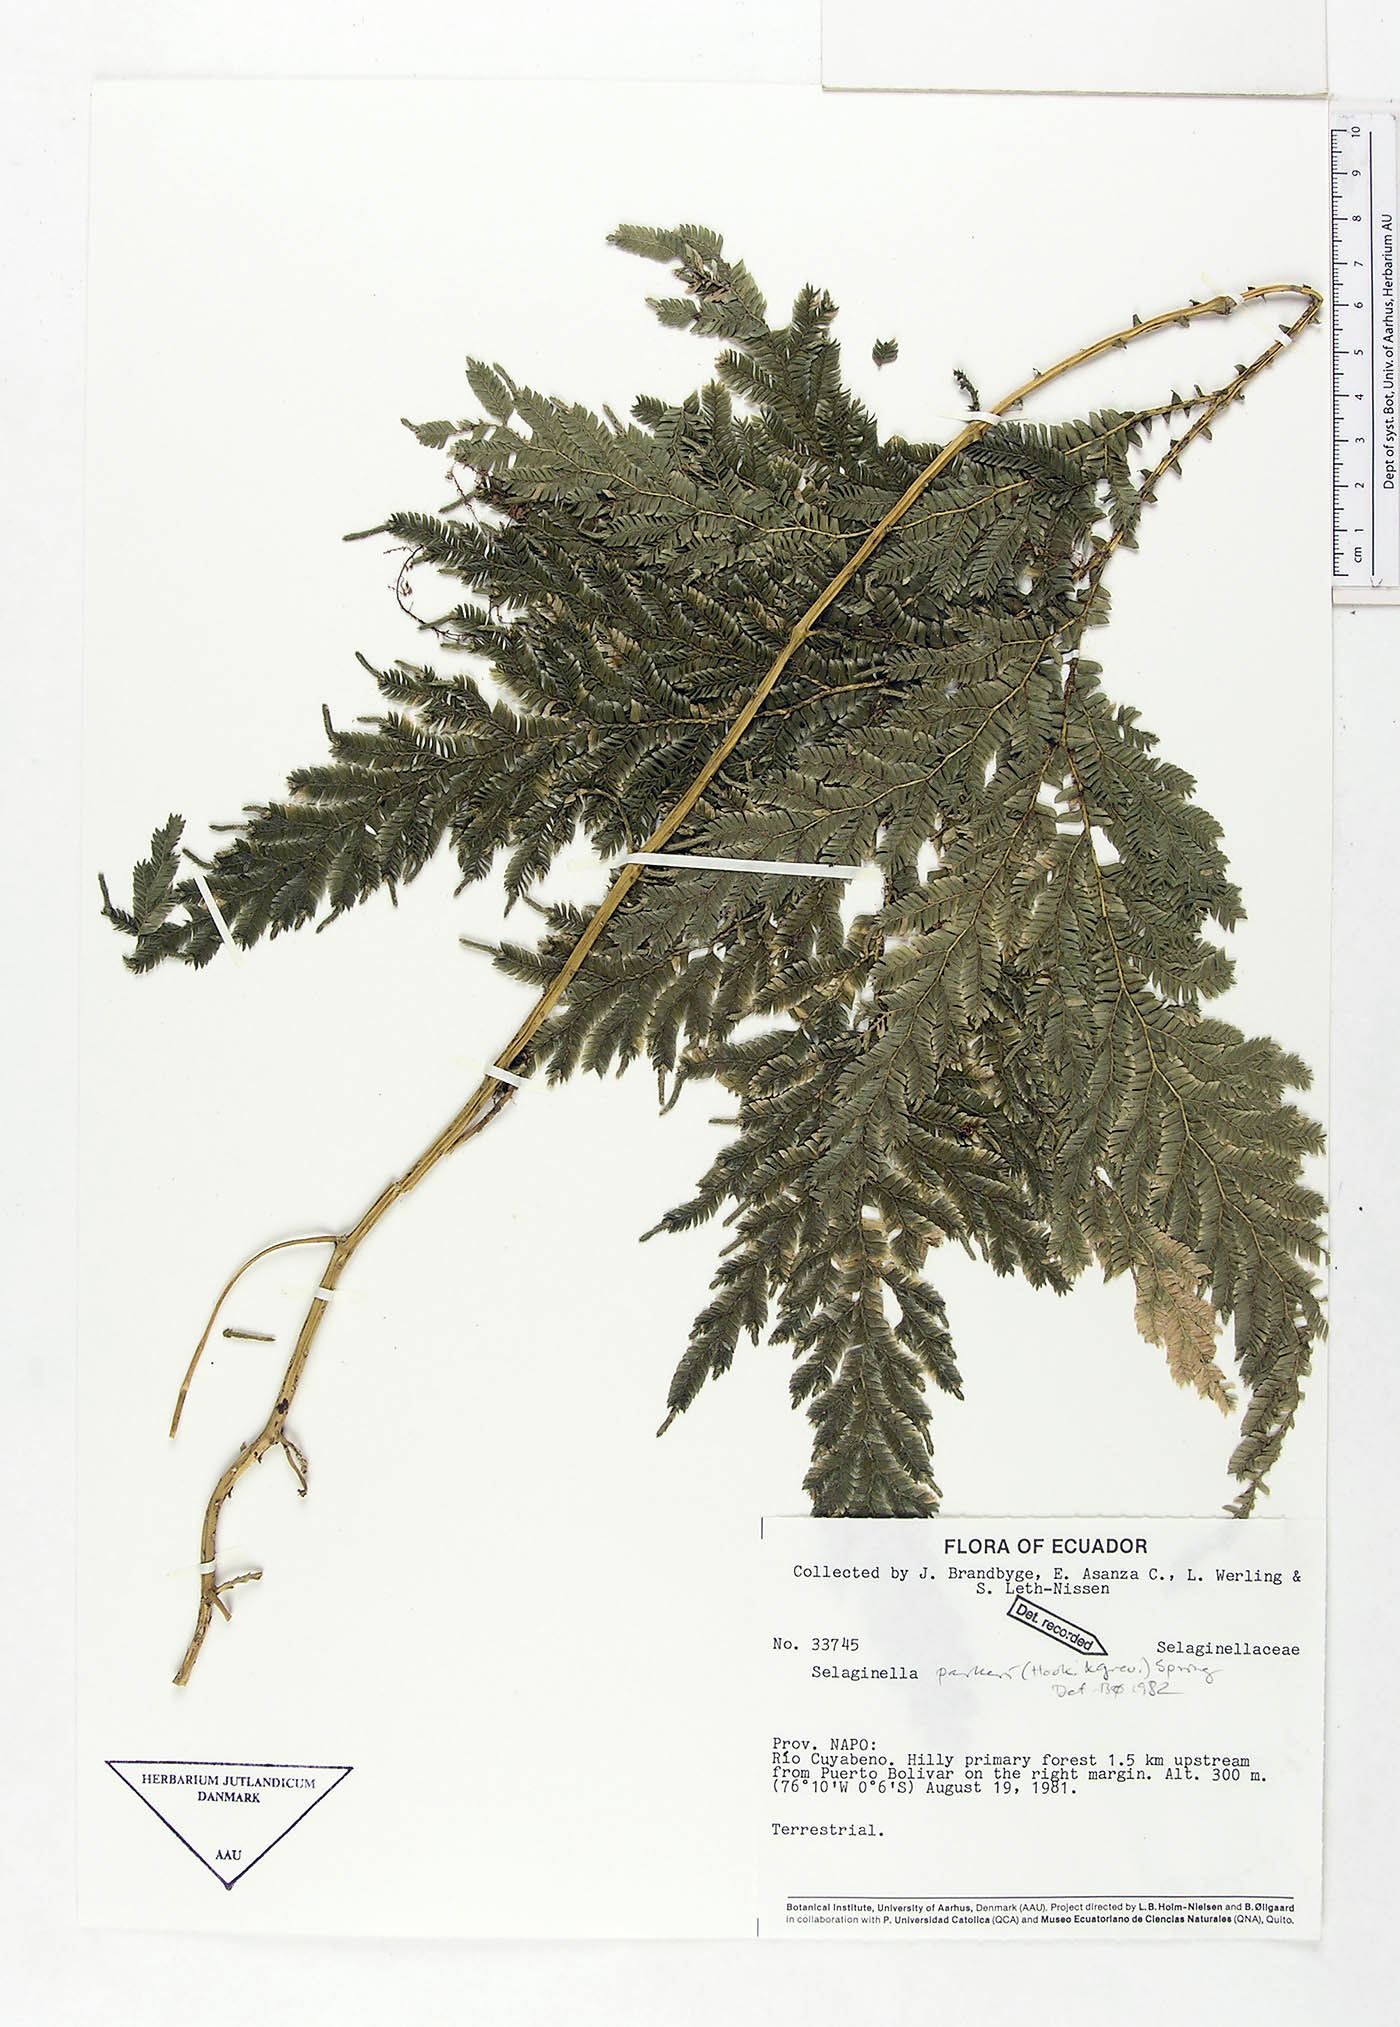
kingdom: Plantae
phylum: Tracheophyta
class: Lycopodiopsida
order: Selaginellales
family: Selaginellaceae
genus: Selaginella
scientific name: Selaginella parkeri
